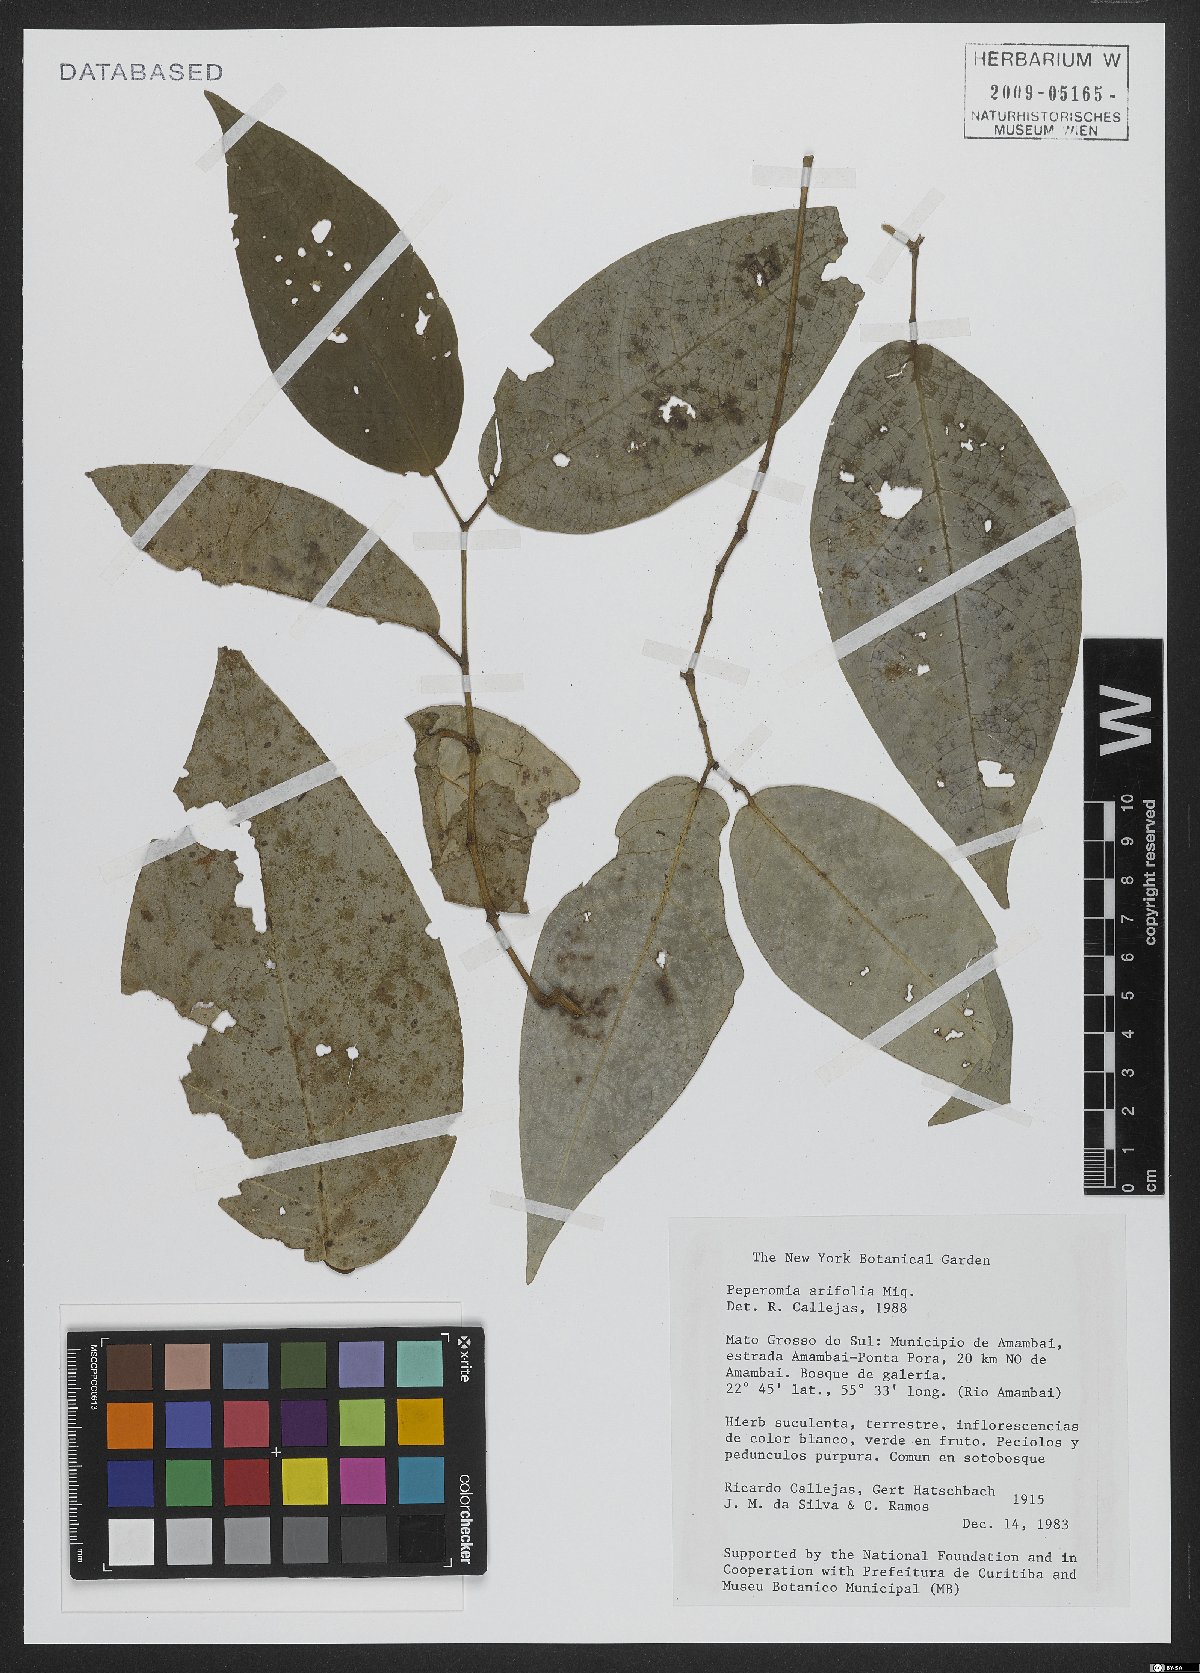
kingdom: Plantae
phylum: Tracheophyta
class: Magnoliopsida
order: Piperales
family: Piperaceae
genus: Peperomia
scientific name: Peperomia arifolia
